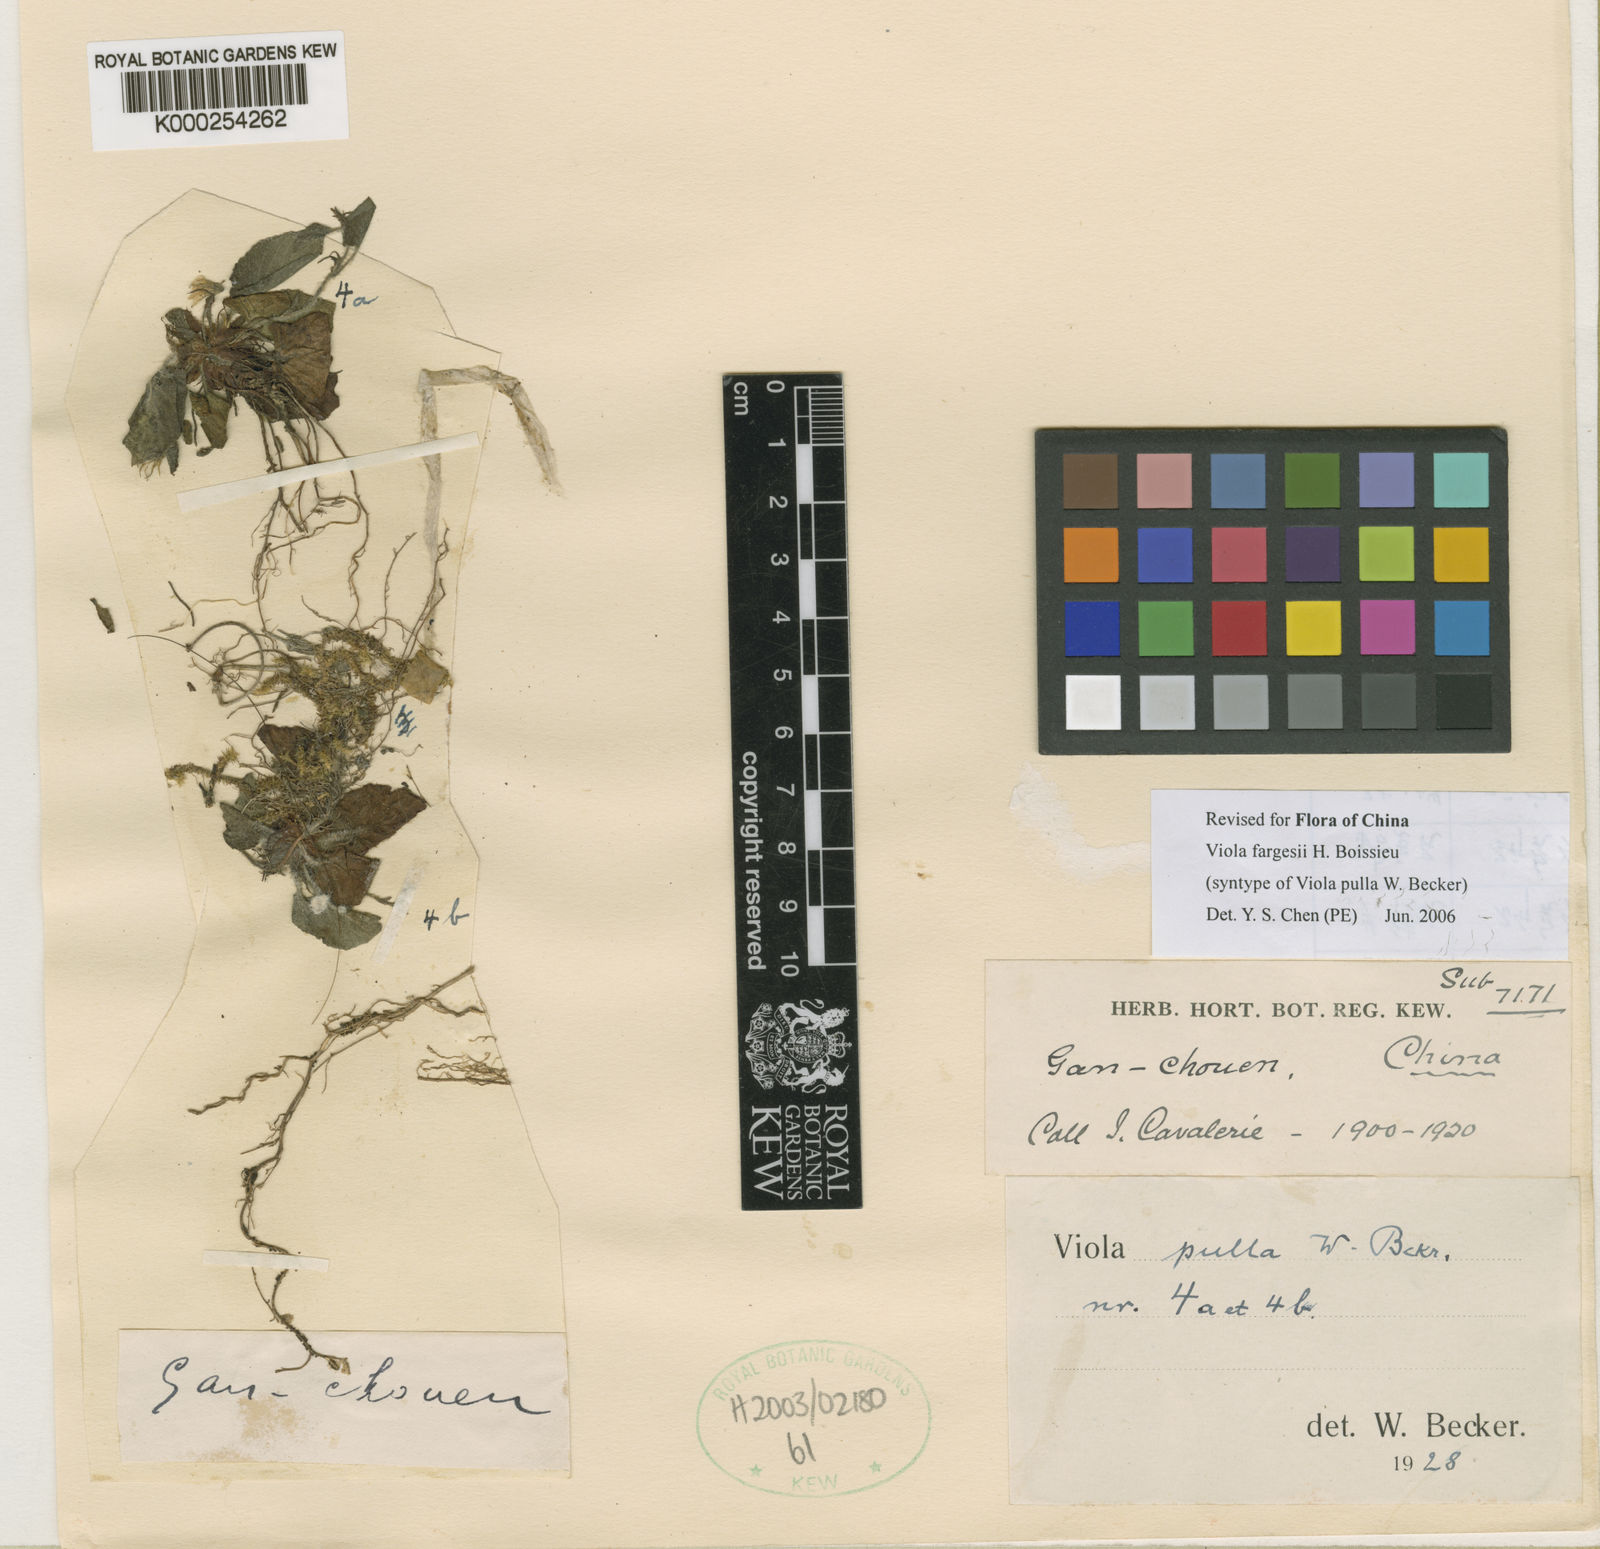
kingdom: Plantae
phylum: Tracheophyta
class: Magnoliopsida
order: Malpighiales
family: Violaceae
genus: Viola
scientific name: Viola fargesii
